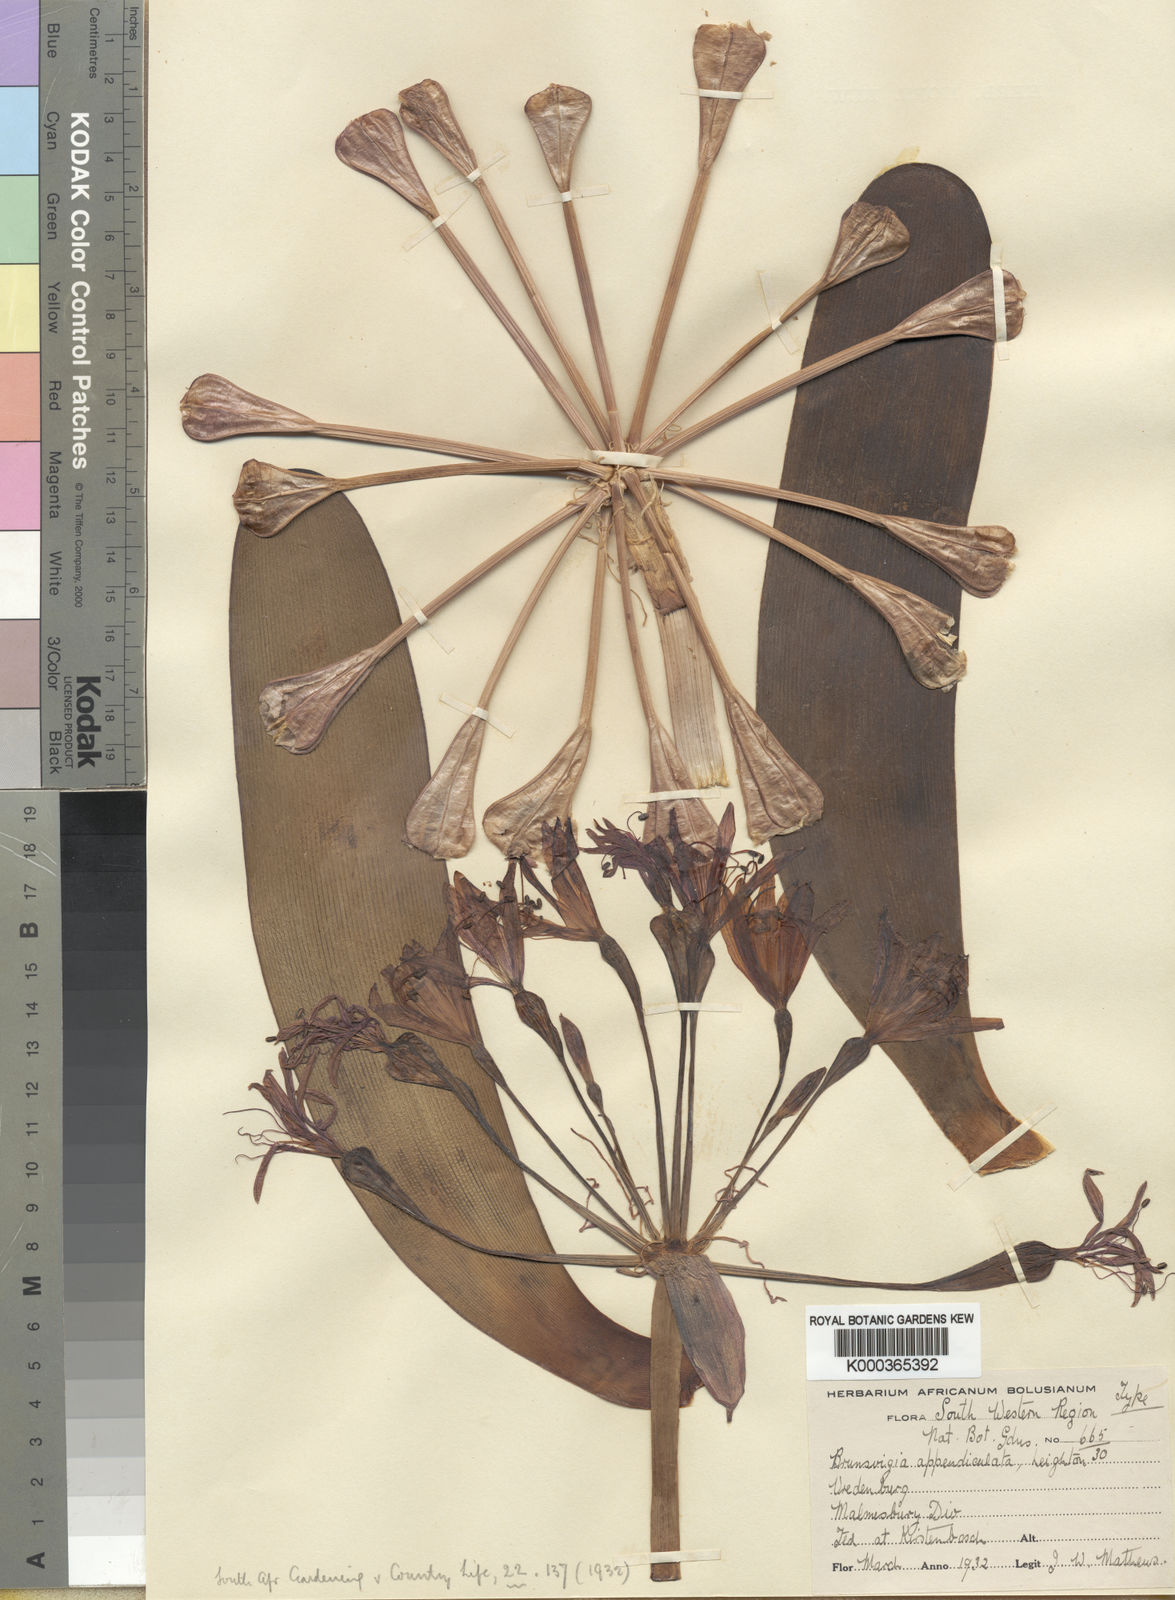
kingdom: Plantae
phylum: Tracheophyta
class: Liliopsida
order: Asparagales
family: Amaryllidaceae
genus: Brunsvigia
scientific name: Brunsvigia bosmaniae
